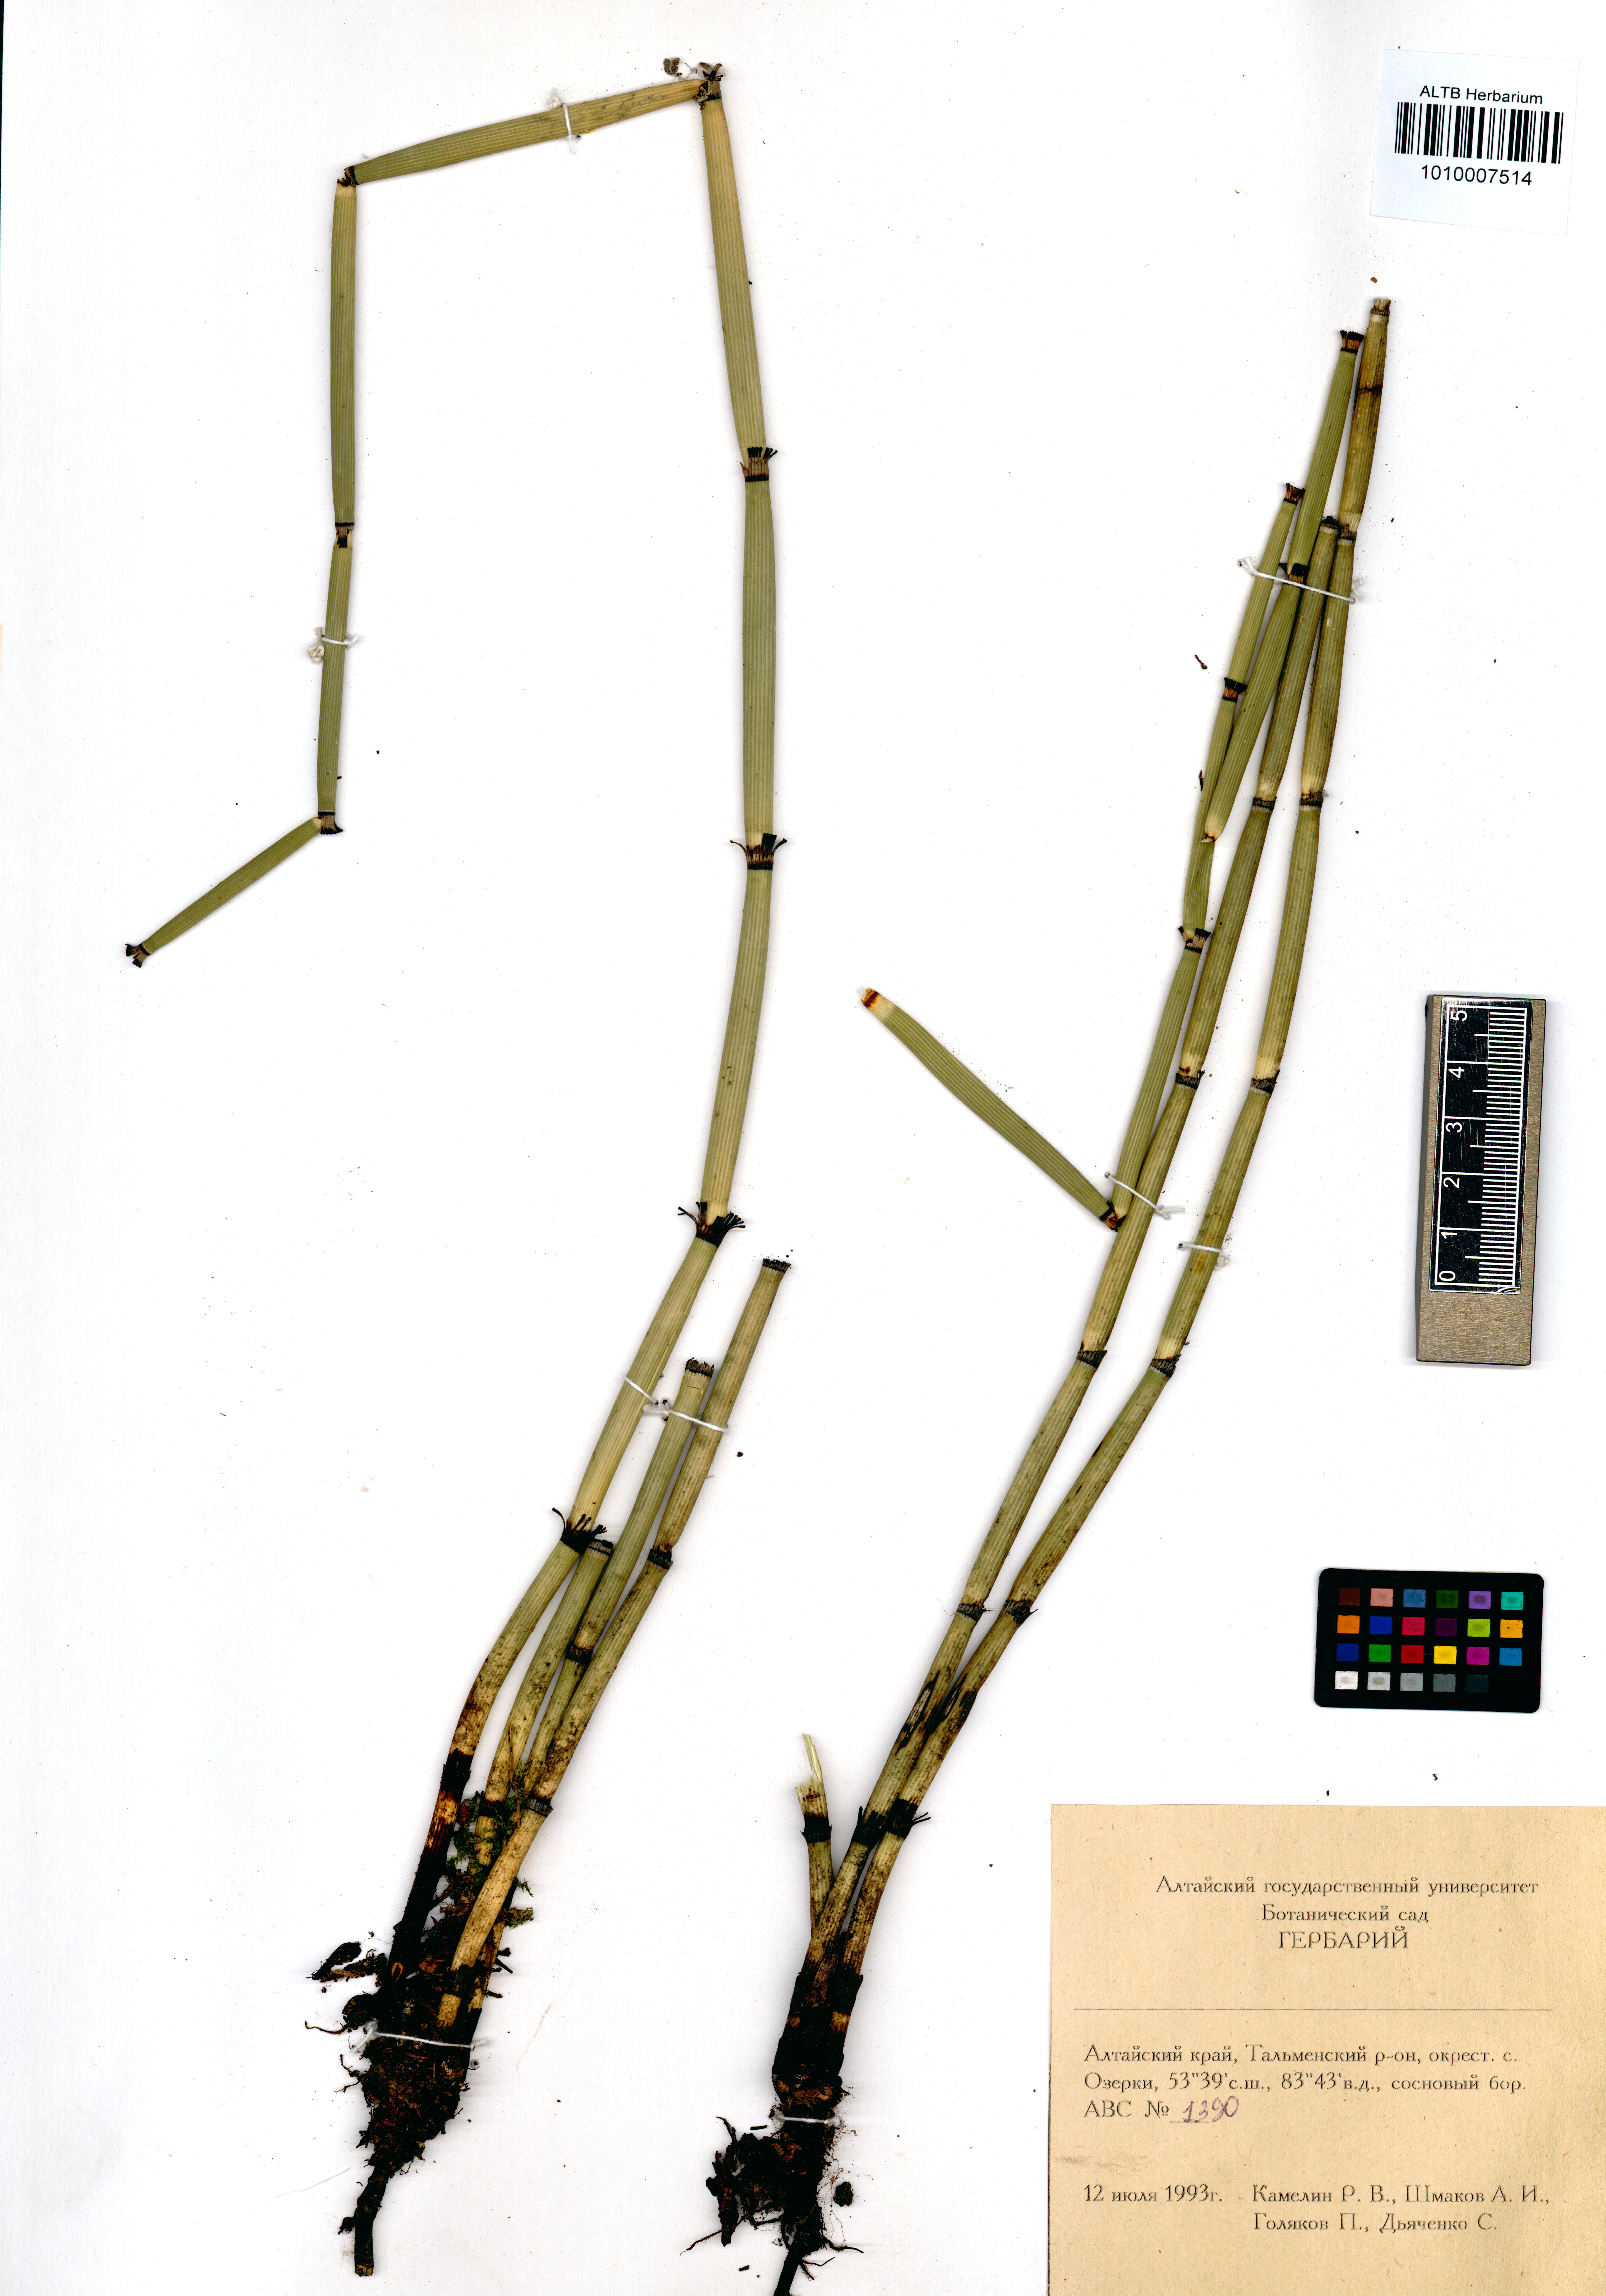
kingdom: Plantae
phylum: Tracheophyta
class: Polypodiopsida
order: Equisetales
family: Equisetaceae
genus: Equisetum
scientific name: Equisetum hyemale
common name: Rough horsetail
